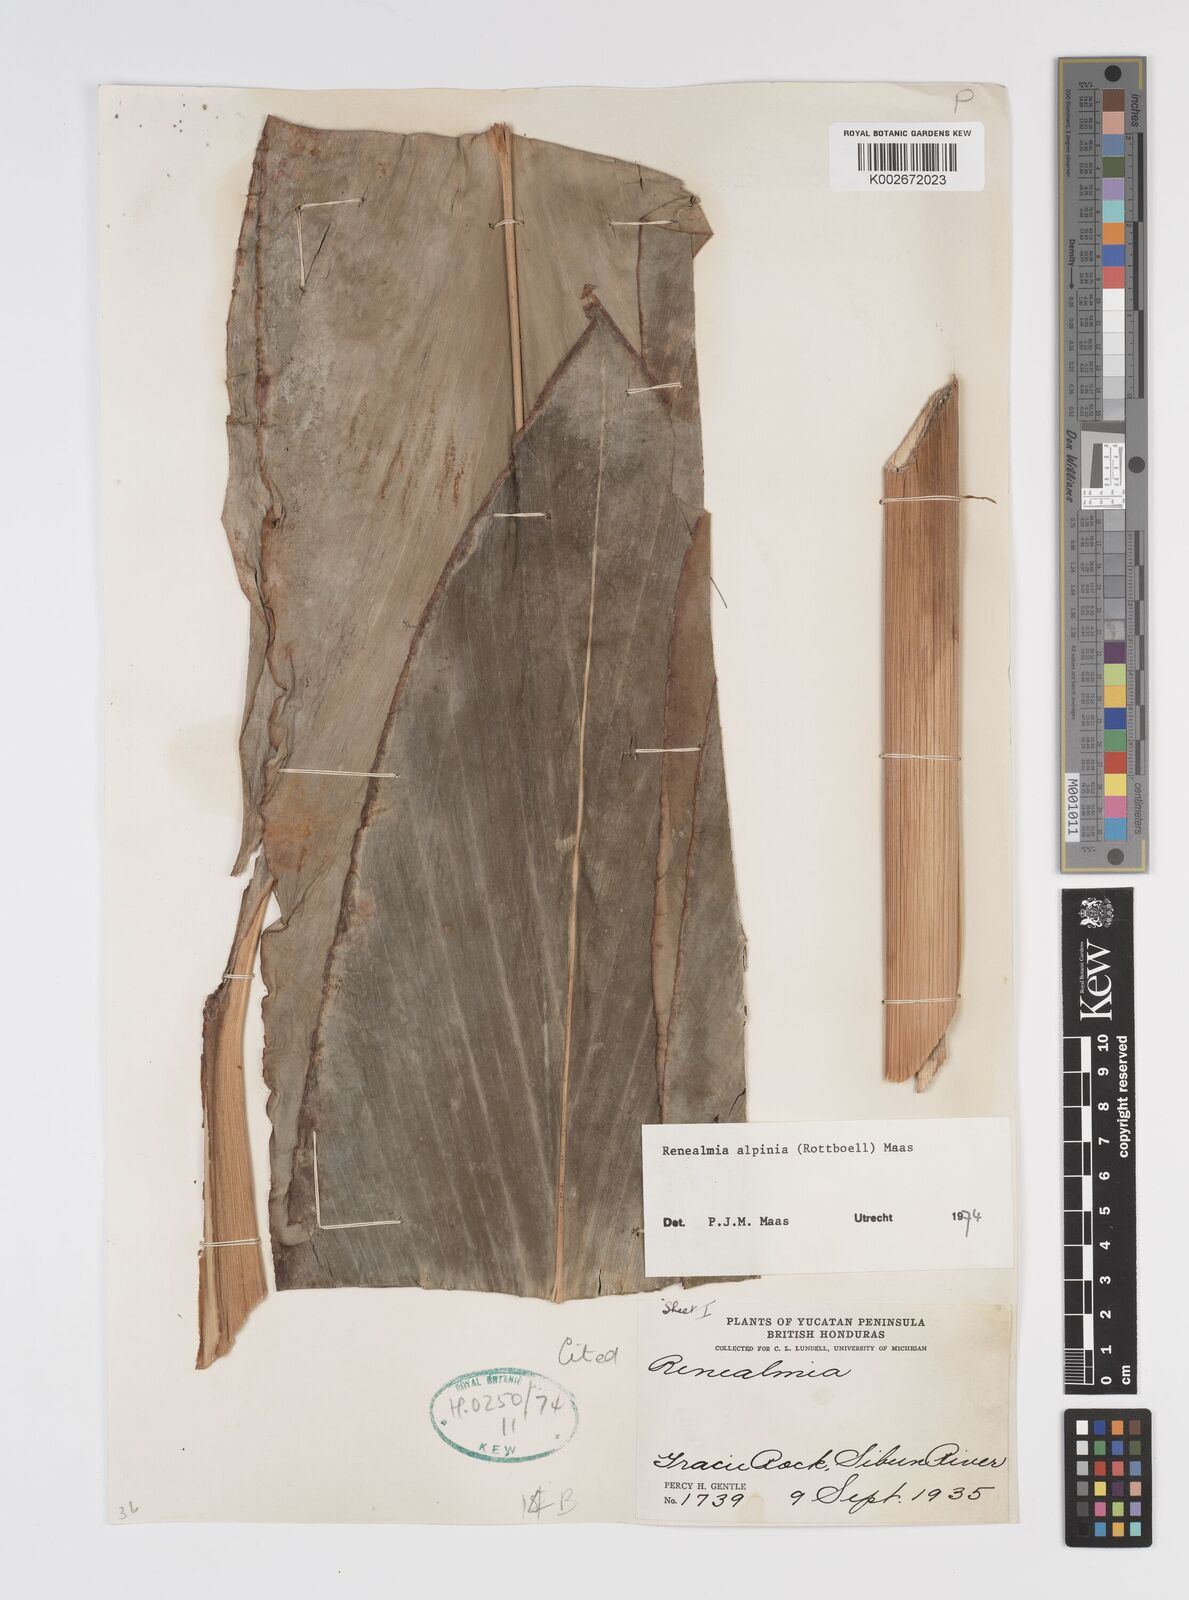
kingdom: Plantae
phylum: Tracheophyta
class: Liliopsida
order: Zingiberales
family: Zingiberaceae
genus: Renealmia
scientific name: Renealmia alpinia
